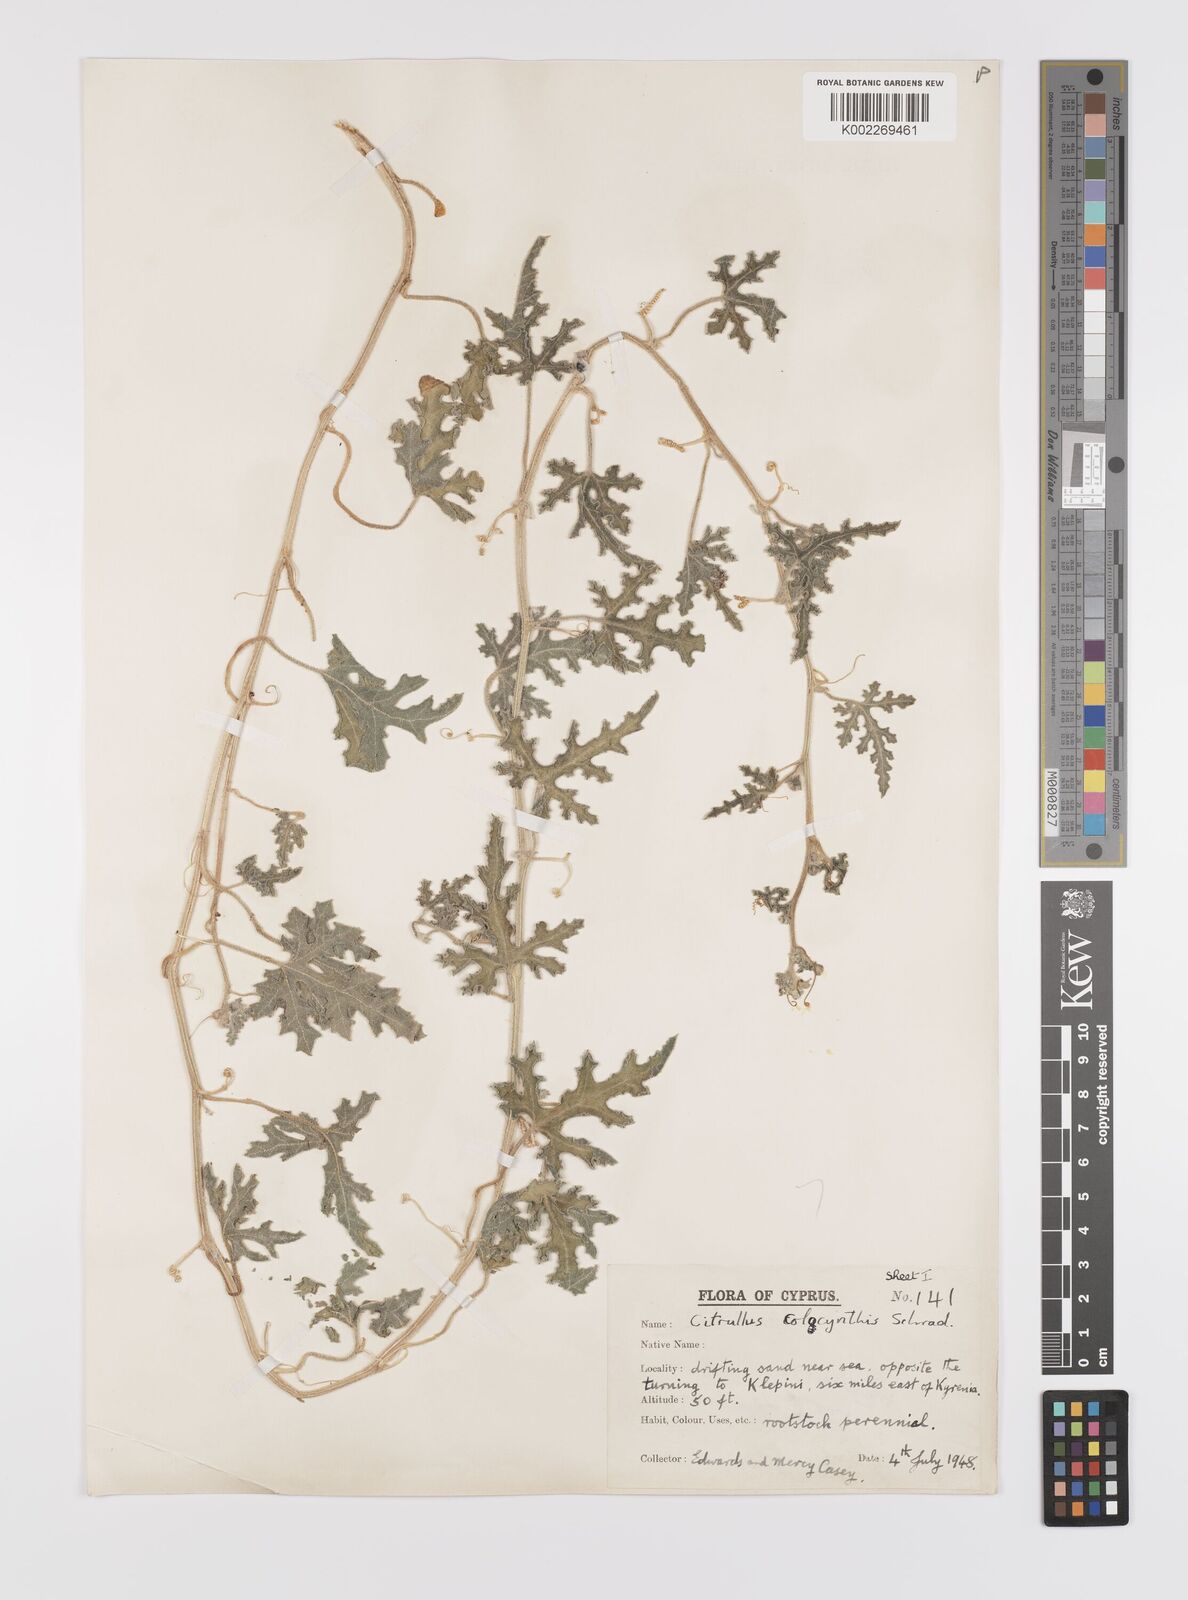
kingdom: Plantae
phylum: Tracheophyta
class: Magnoliopsida
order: Cucurbitales
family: Cucurbitaceae
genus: Citrullus
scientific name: Citrullus colocynthis
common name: Colocynth
